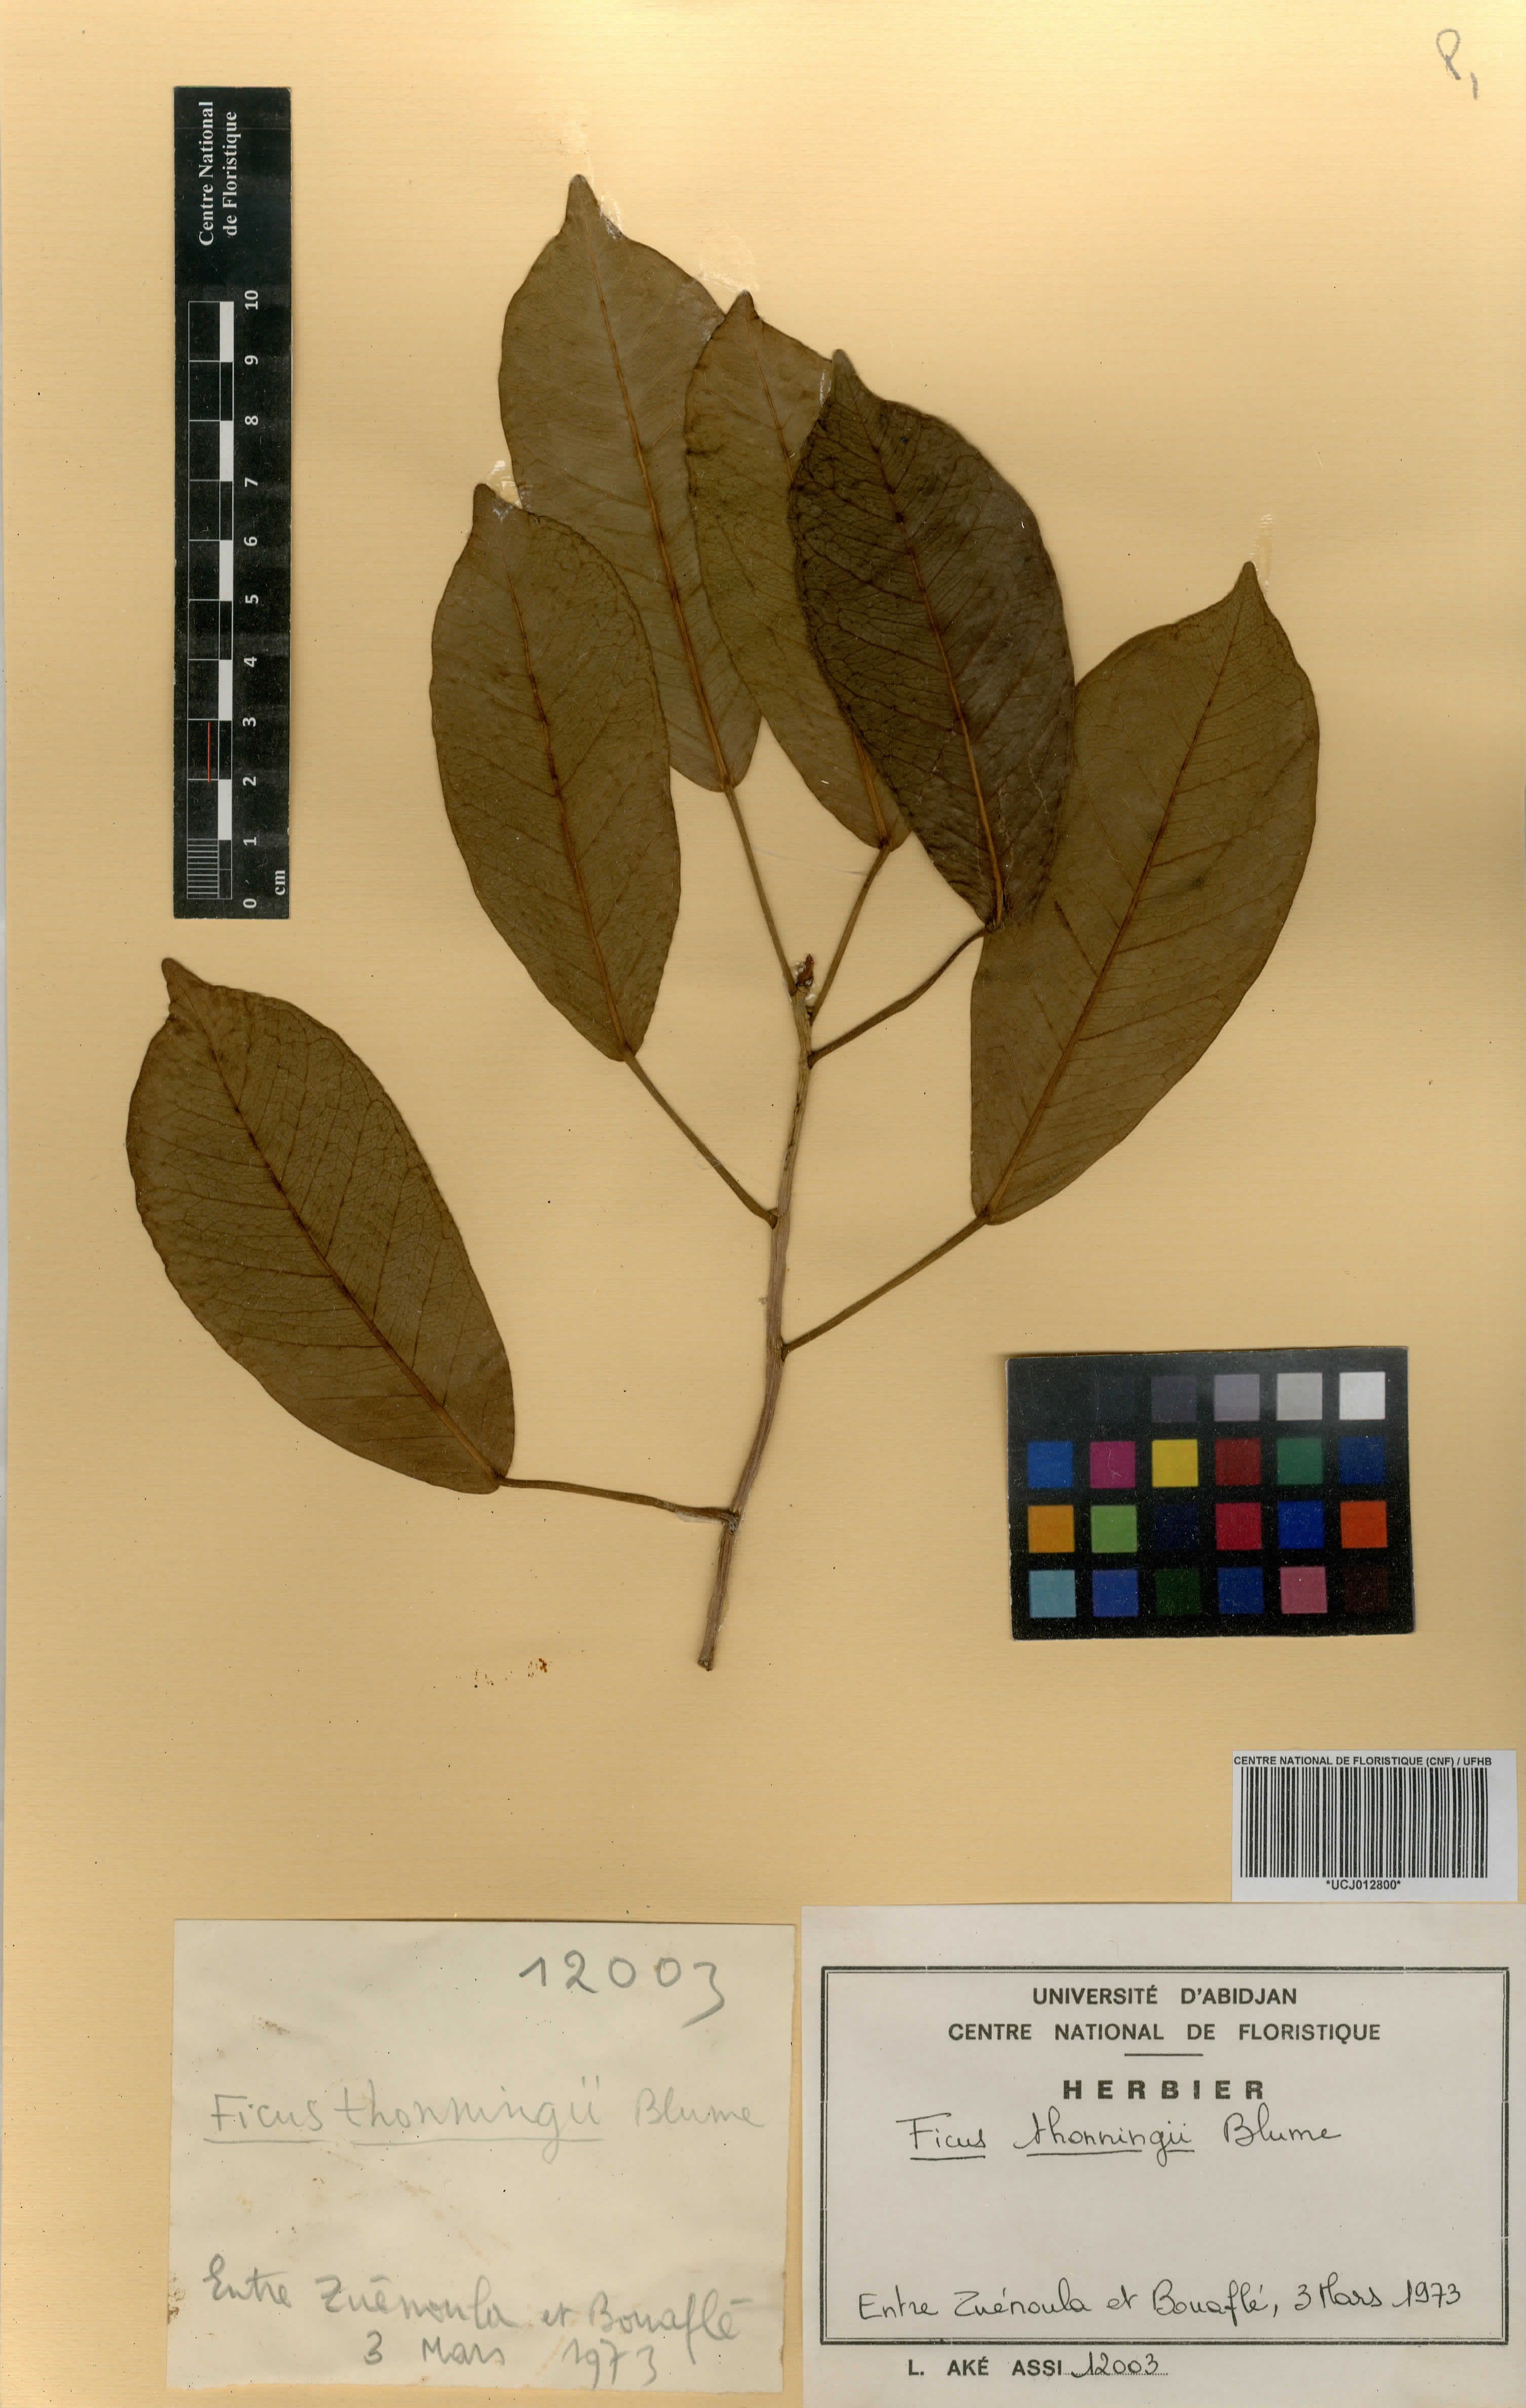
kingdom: Plantae
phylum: Tracheophyta
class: Magnoliopsida
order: Rosales
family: Moraceae
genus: Ficus
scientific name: Ficus thonningii
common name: Fig
